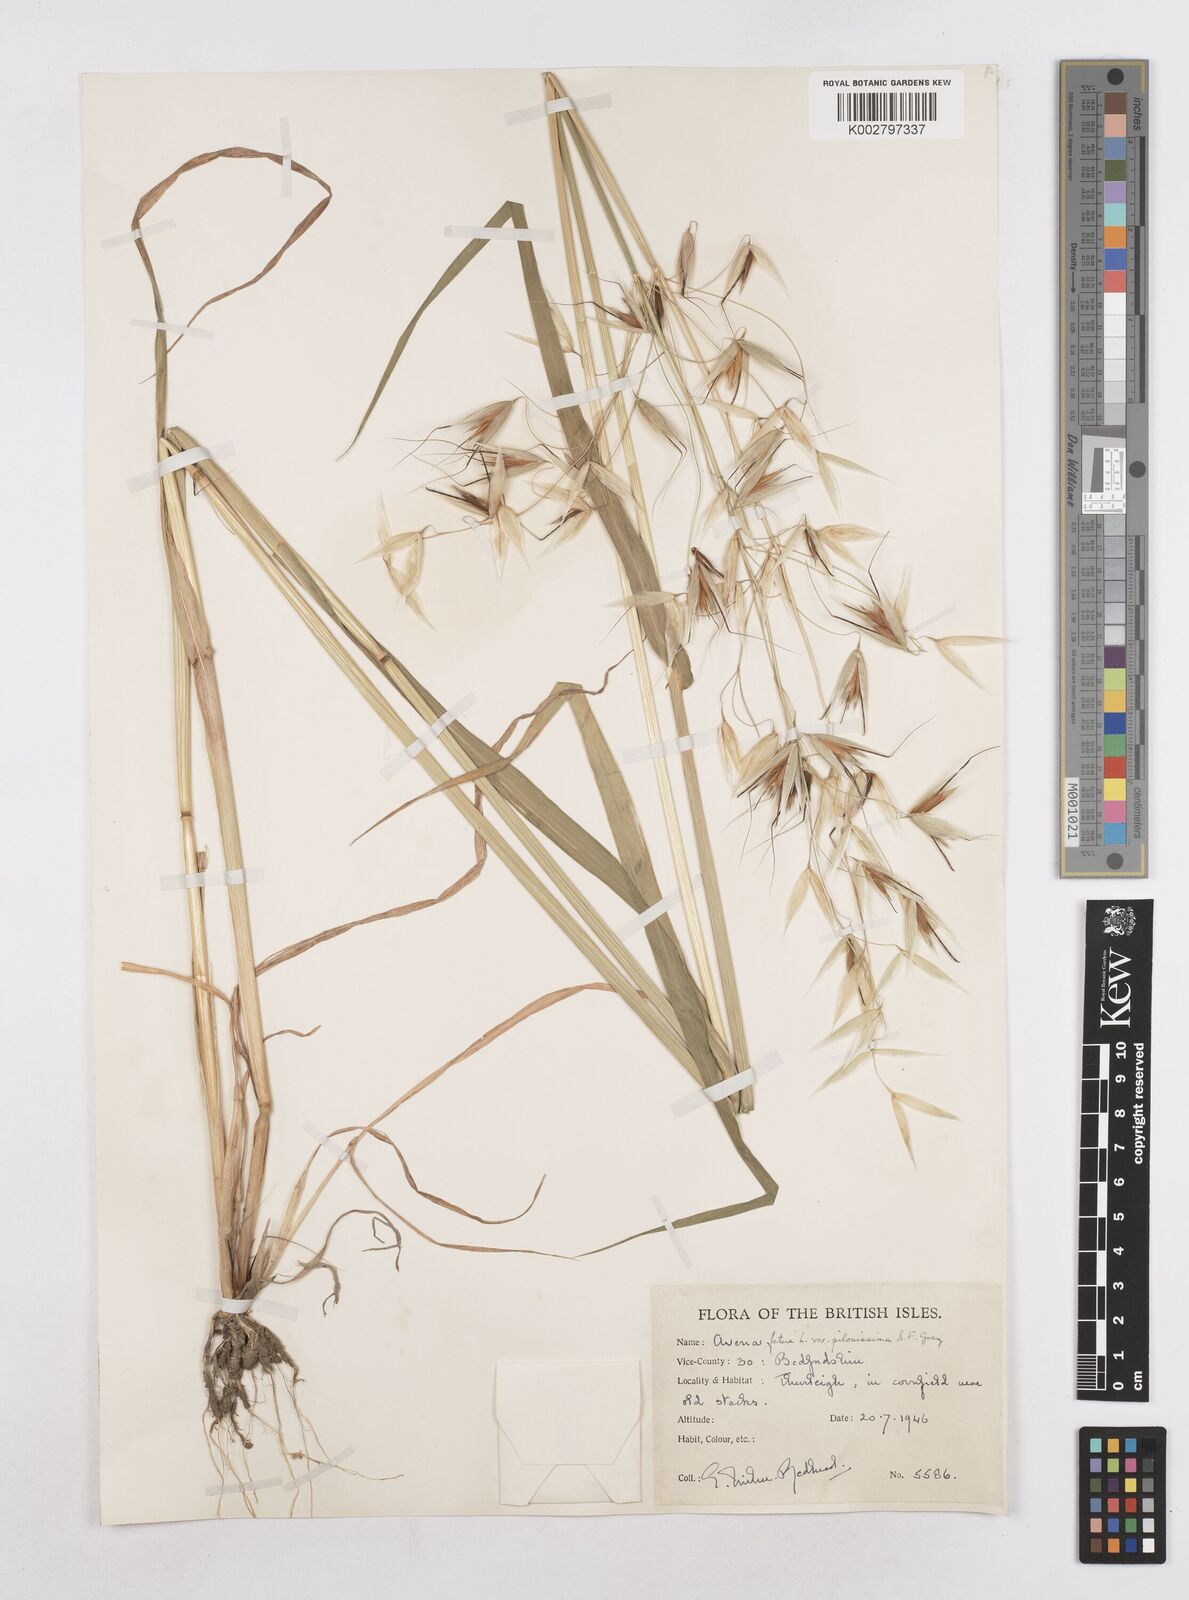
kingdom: Plantae
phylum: Tracheophyta
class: Liliopsida
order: Poales
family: Poaceae
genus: Avena
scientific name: Avena fatua
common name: Wild oat
